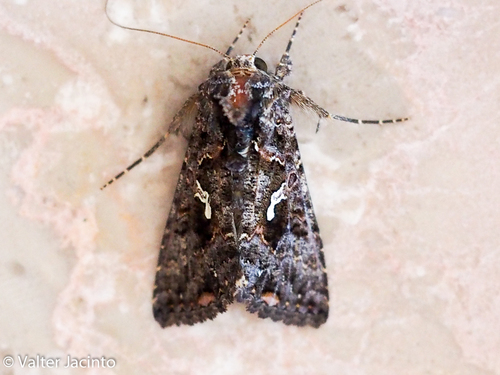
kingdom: Animalia
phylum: Arthropoda
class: Insecta
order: Lepidoptera
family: Noctuidae
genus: Ctenoplusia
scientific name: Ctenoplusia limbirena
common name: Scar bank gem
